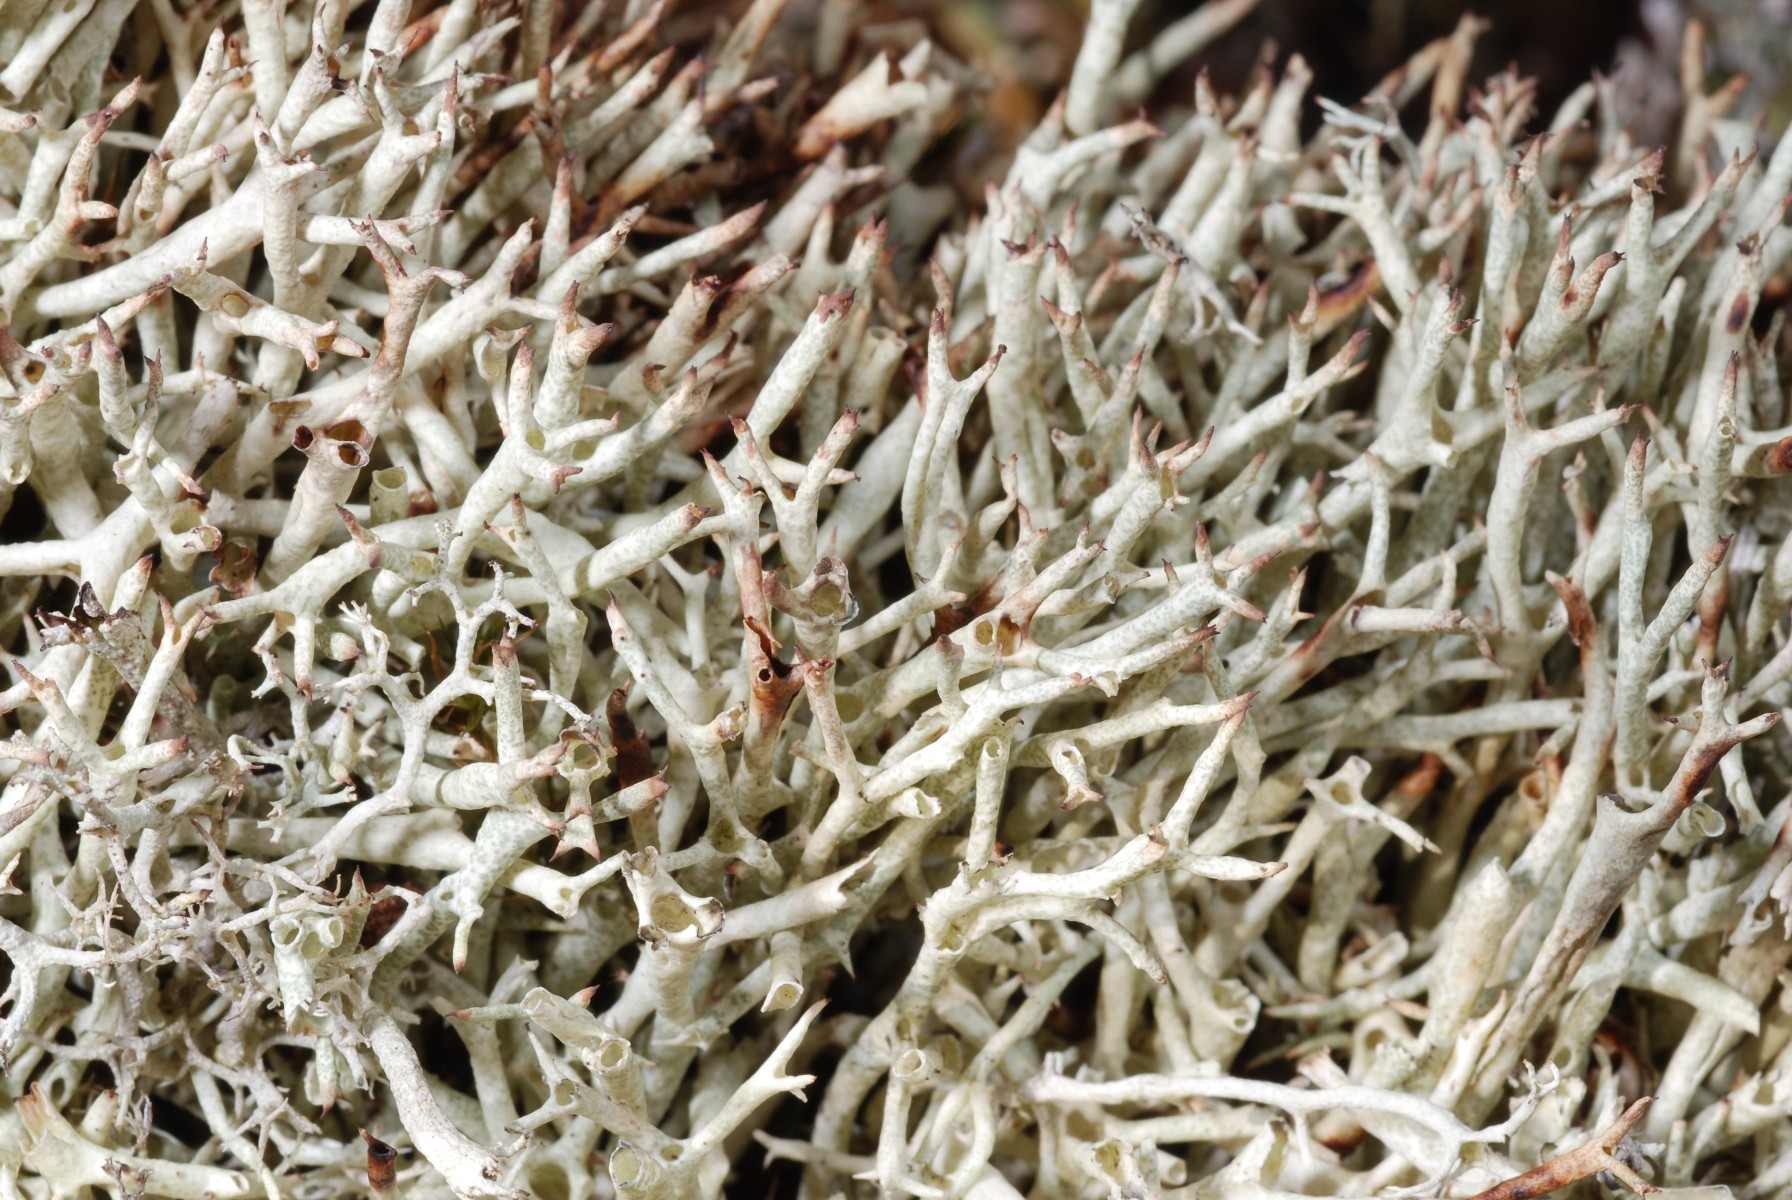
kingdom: Fungi
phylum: Ascomycota
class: Lecanoromycetes
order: Lecanorales
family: Cladoniaceae
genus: Cladonia
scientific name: Cladonia uncialis
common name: pigget bægerlav
